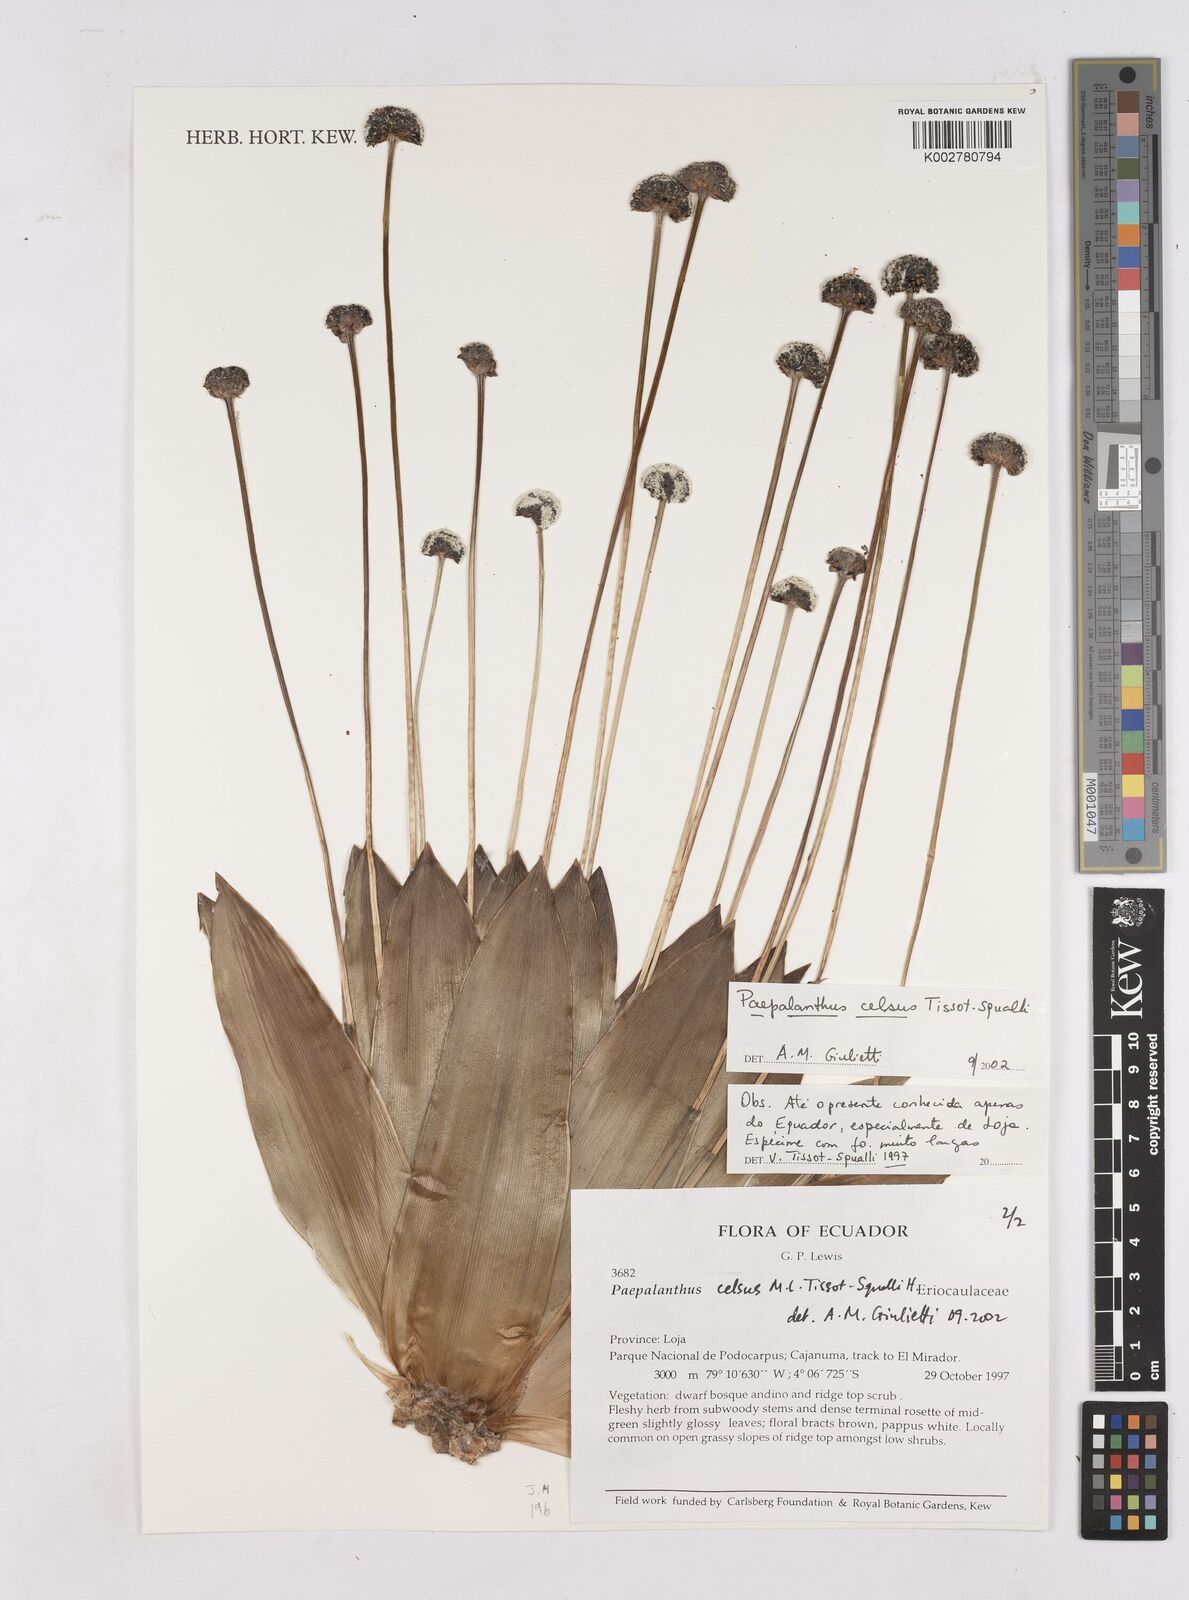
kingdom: Plantae
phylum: Tracheophyta
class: Liliopsida
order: Poales
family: Eriocaulaceae
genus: Paepalanthus
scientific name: Paepalanthus celsus
